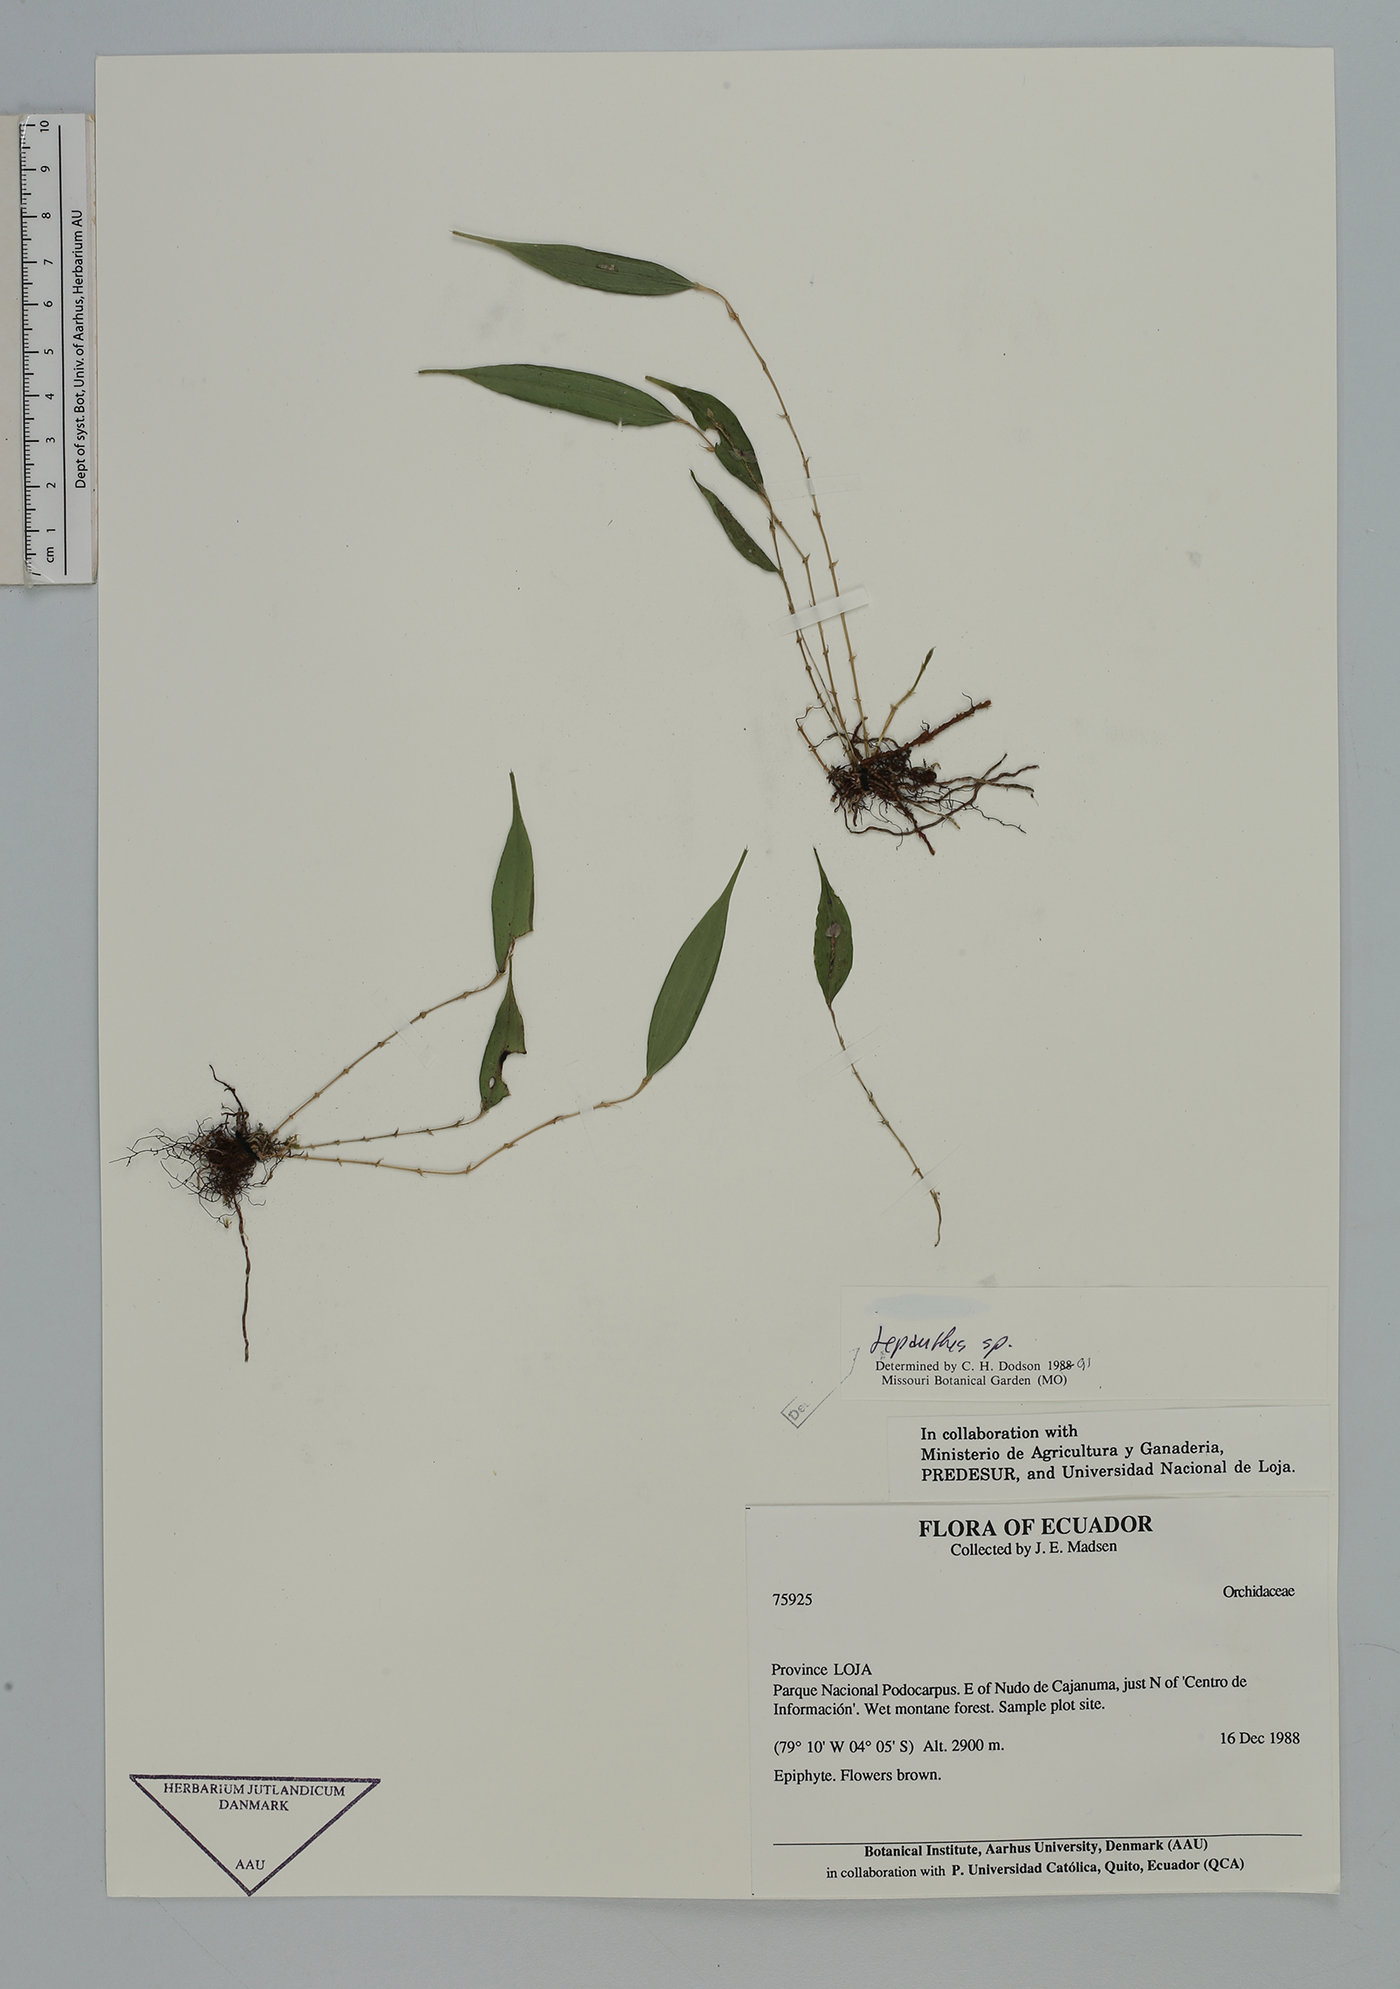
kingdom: Plantae
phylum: Tracheophyta
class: Liliopsida
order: Asparagales
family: Orchidaceae
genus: Lepanthes
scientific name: Lepanthes
